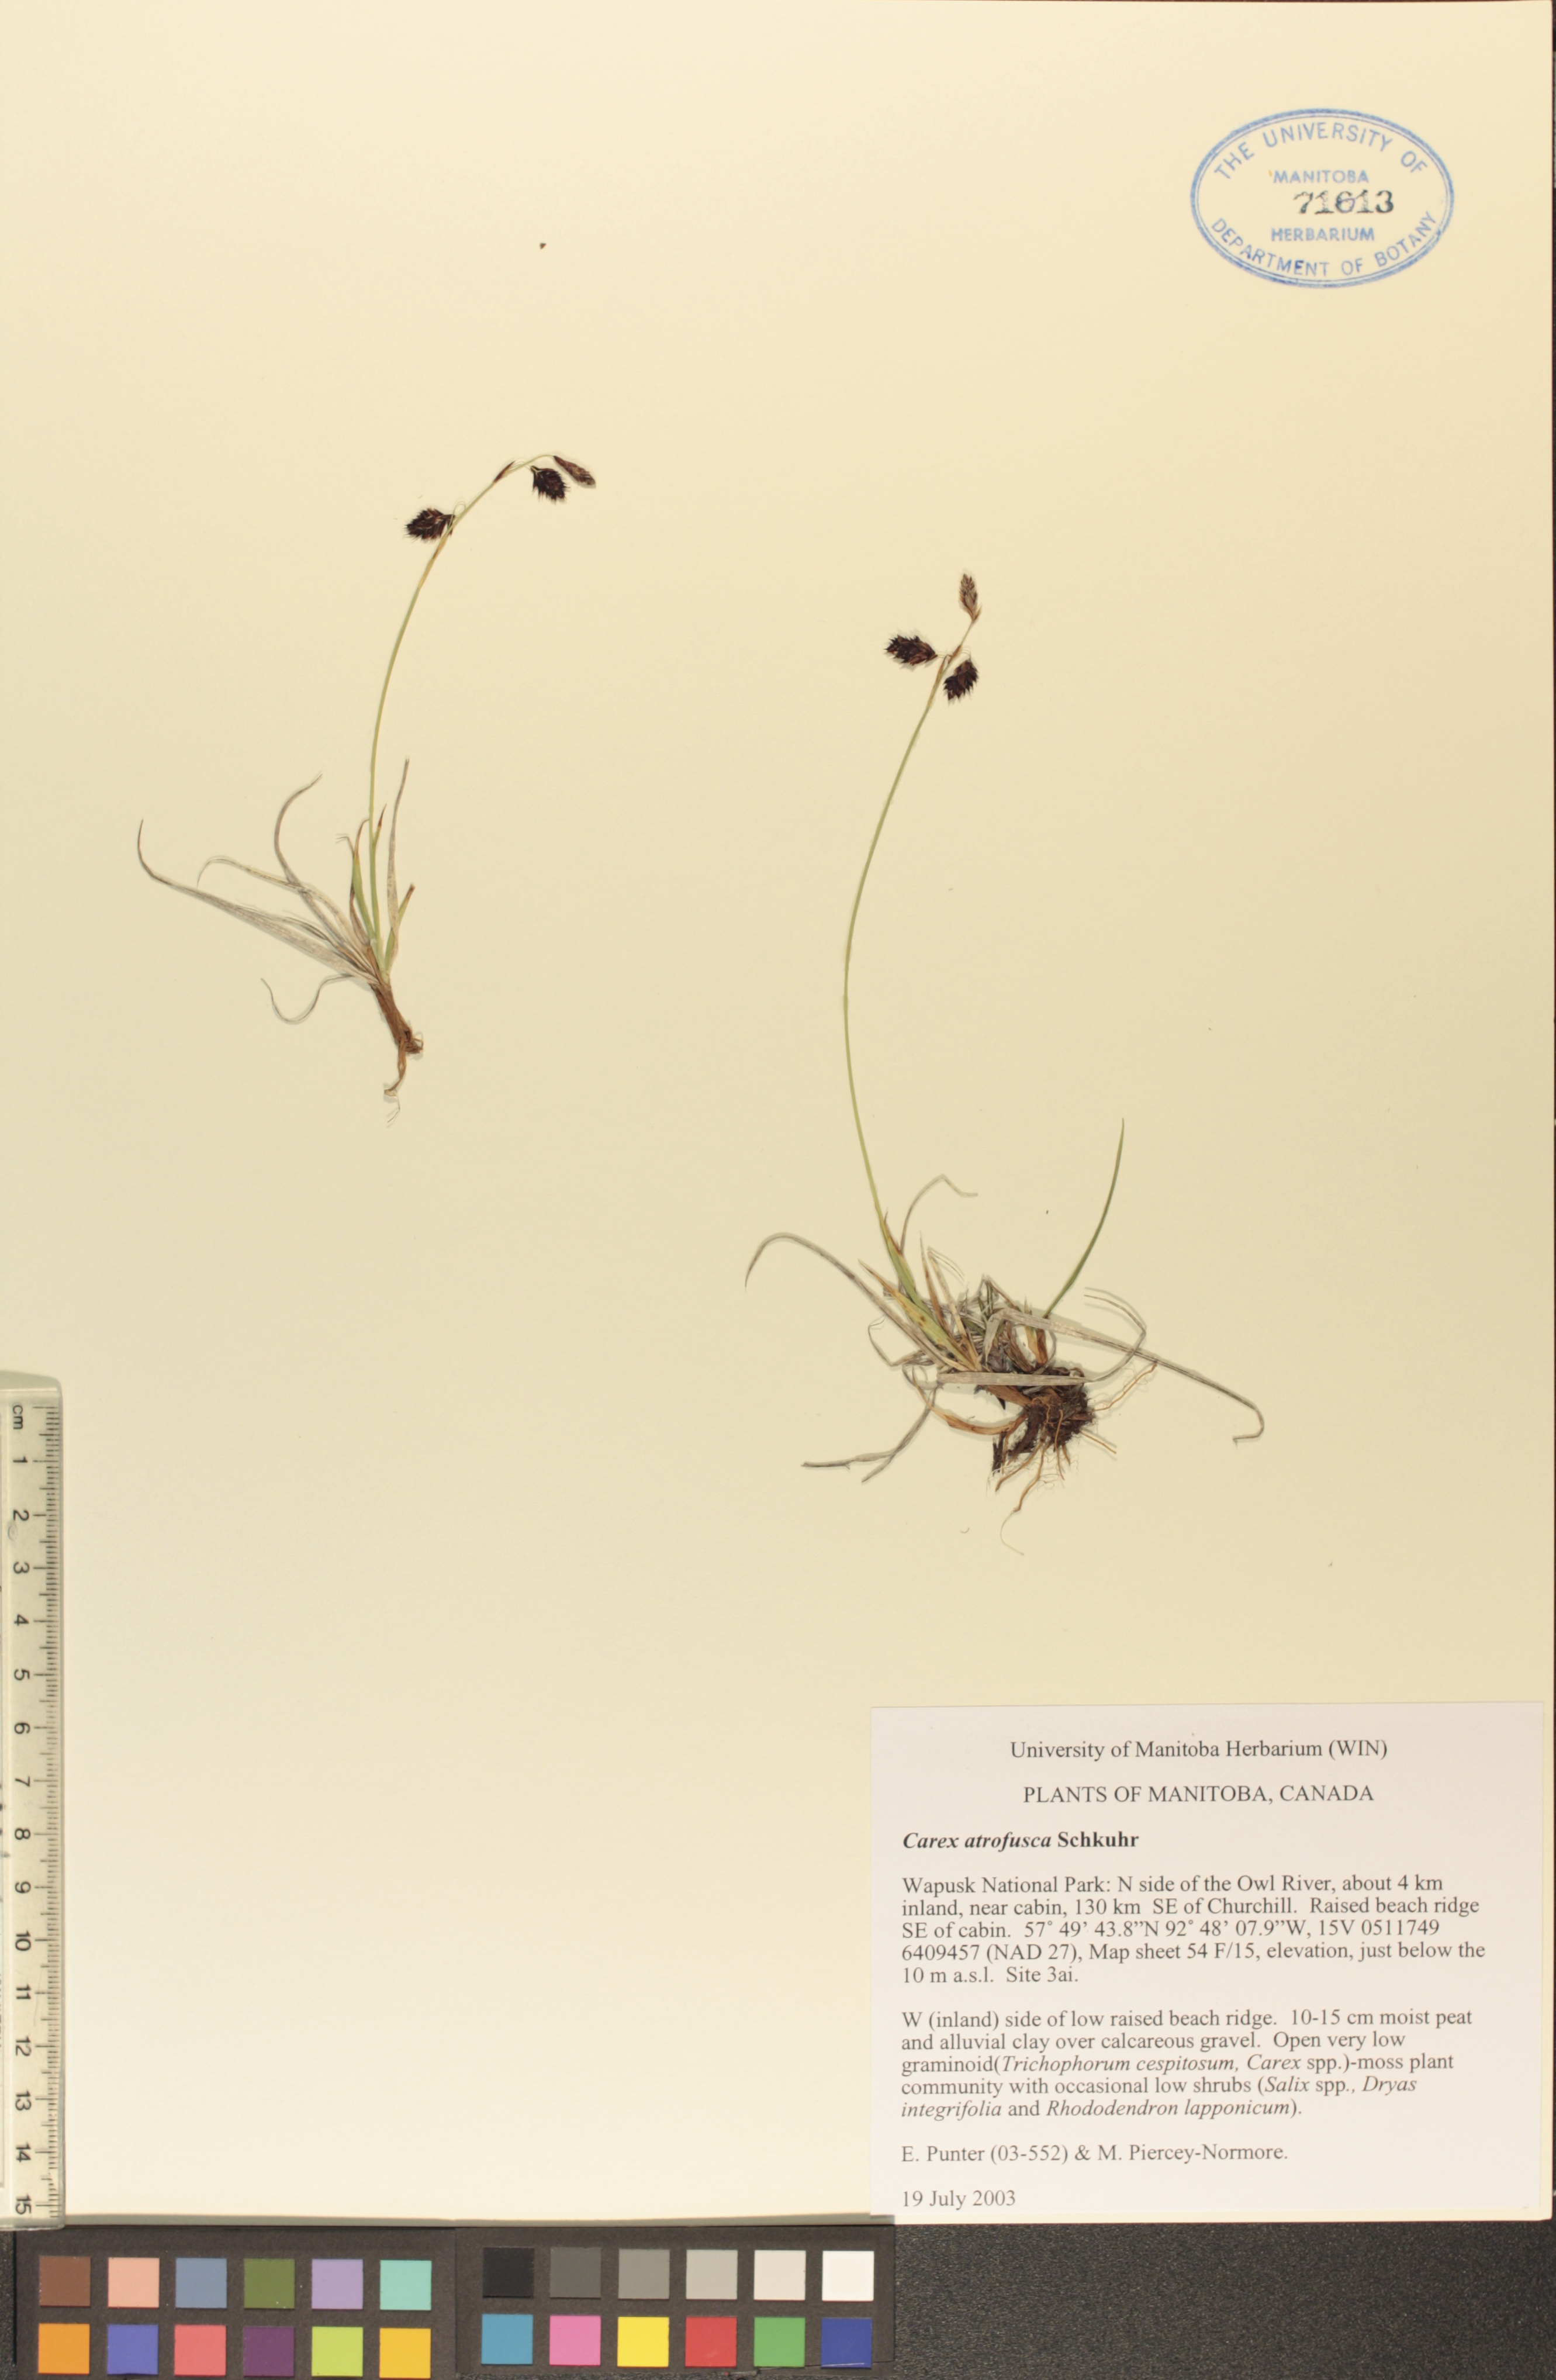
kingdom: Plantae
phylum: Tracheophyta
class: Liliopsida
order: Poales
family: Cyperaceae
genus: Carex
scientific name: Carex pichinchensis
